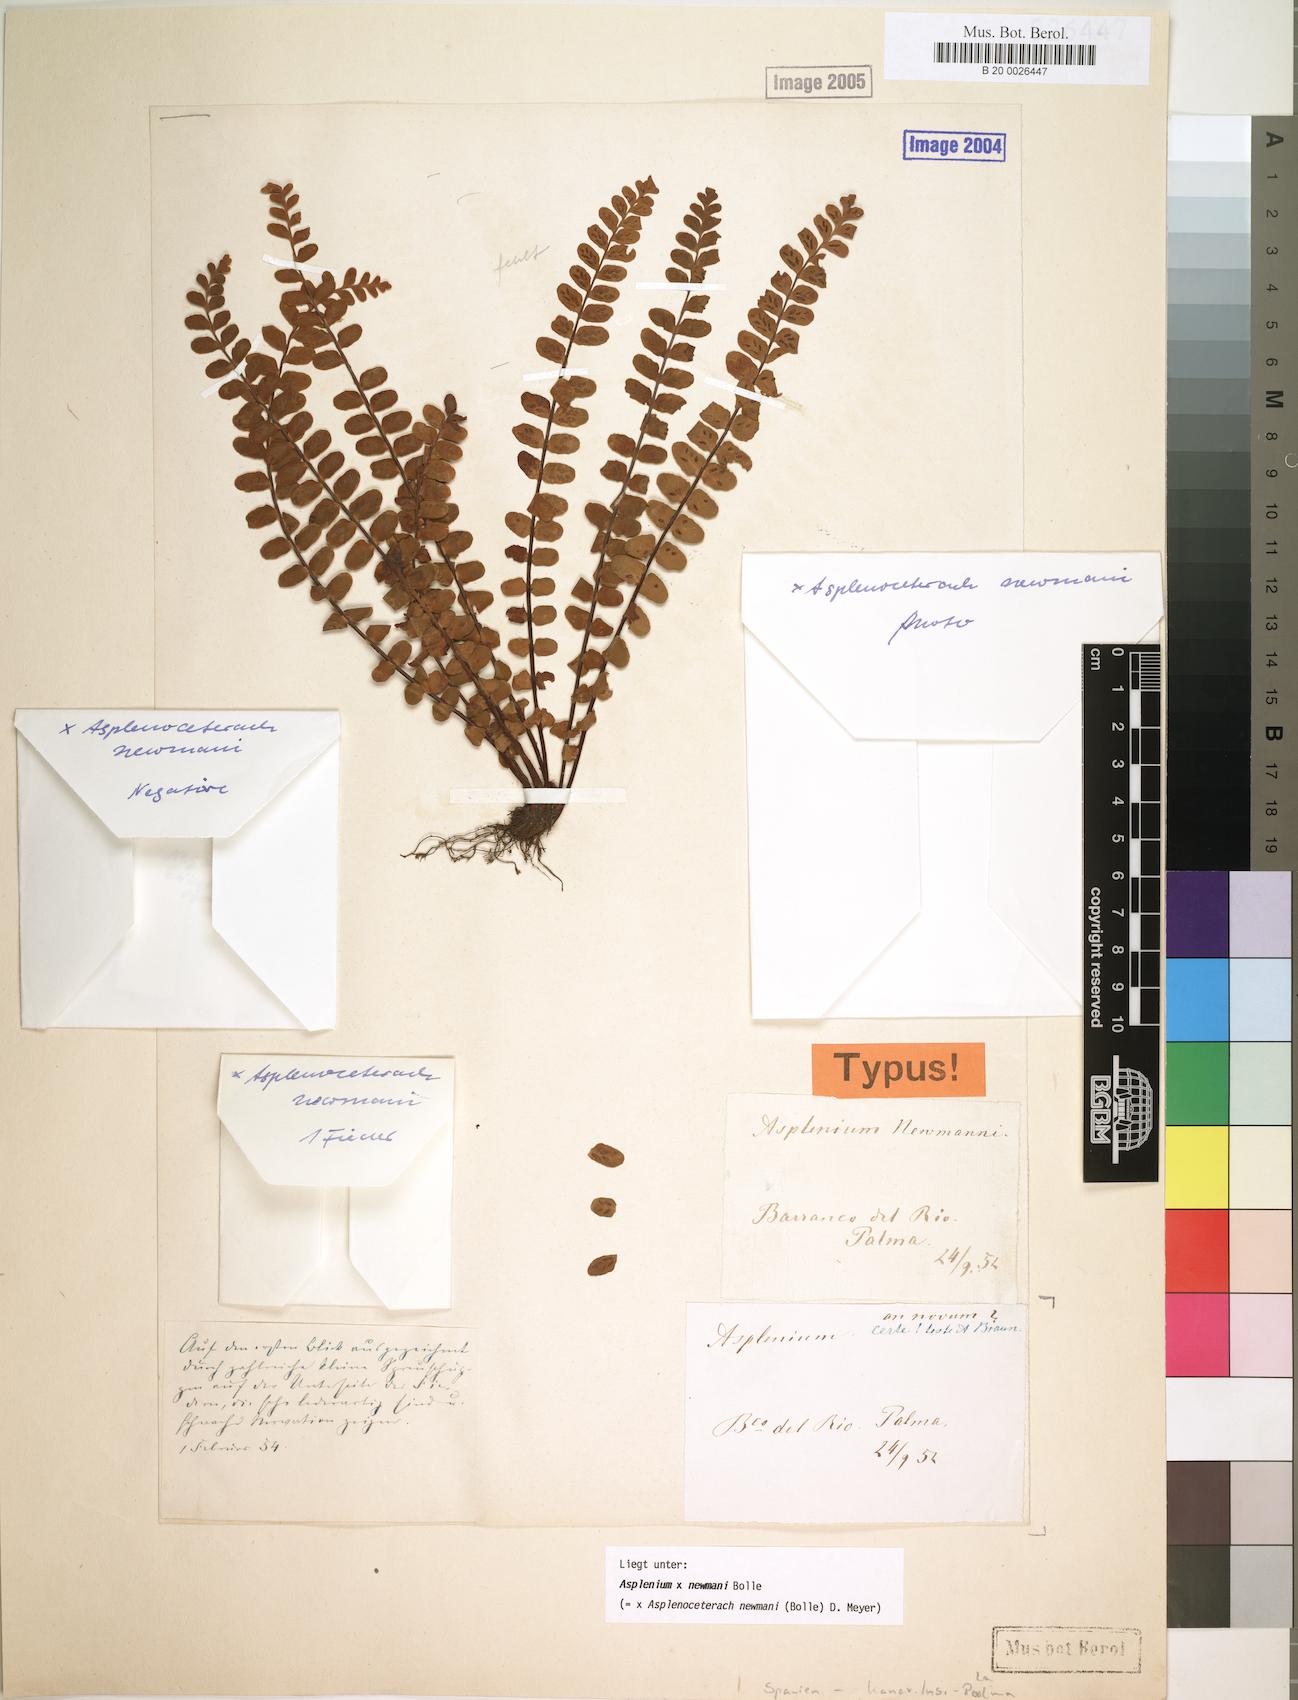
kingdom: Plantae
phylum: Tracheophyta
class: Polypodiopsida
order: Polypodiales
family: Aspleniaceae
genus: Asplenium
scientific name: Asplenium newmanii
